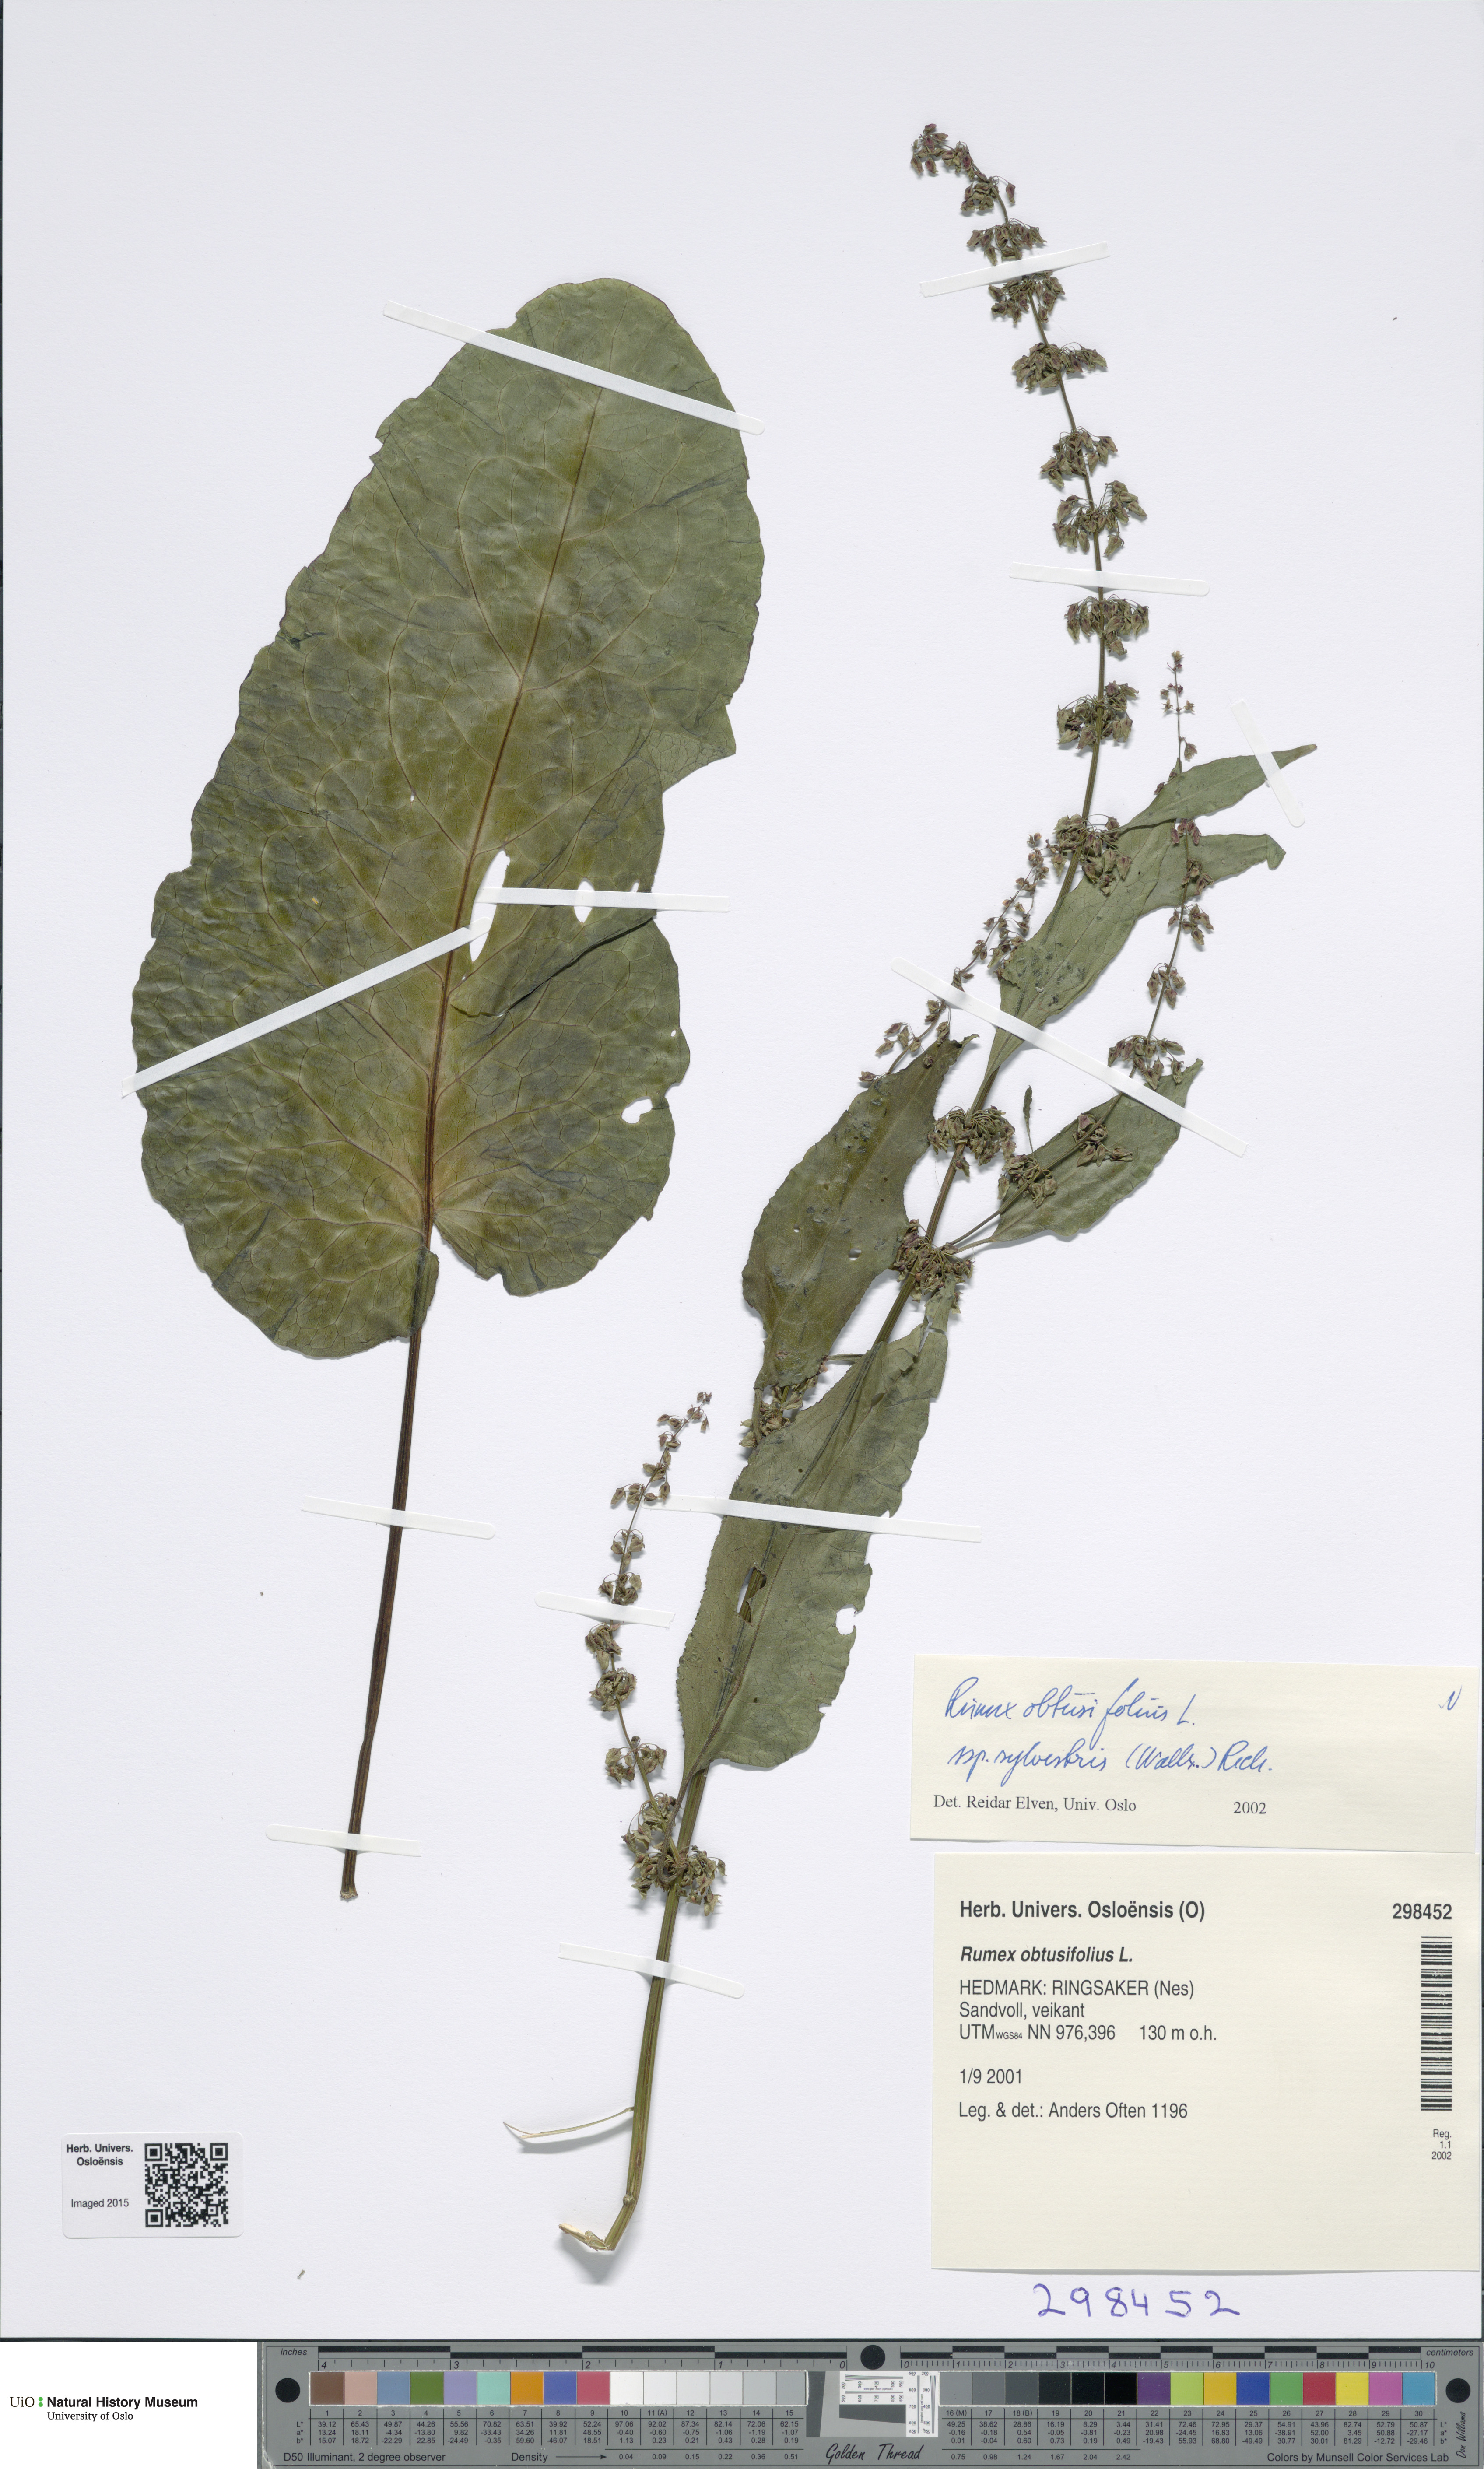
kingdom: Plantae
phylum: Tracheophyta
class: Magnoliopsida
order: Caryophyllales
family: Polygonaceae
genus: Rumex
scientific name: Rumex obtusifolius
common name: Bitter dock
